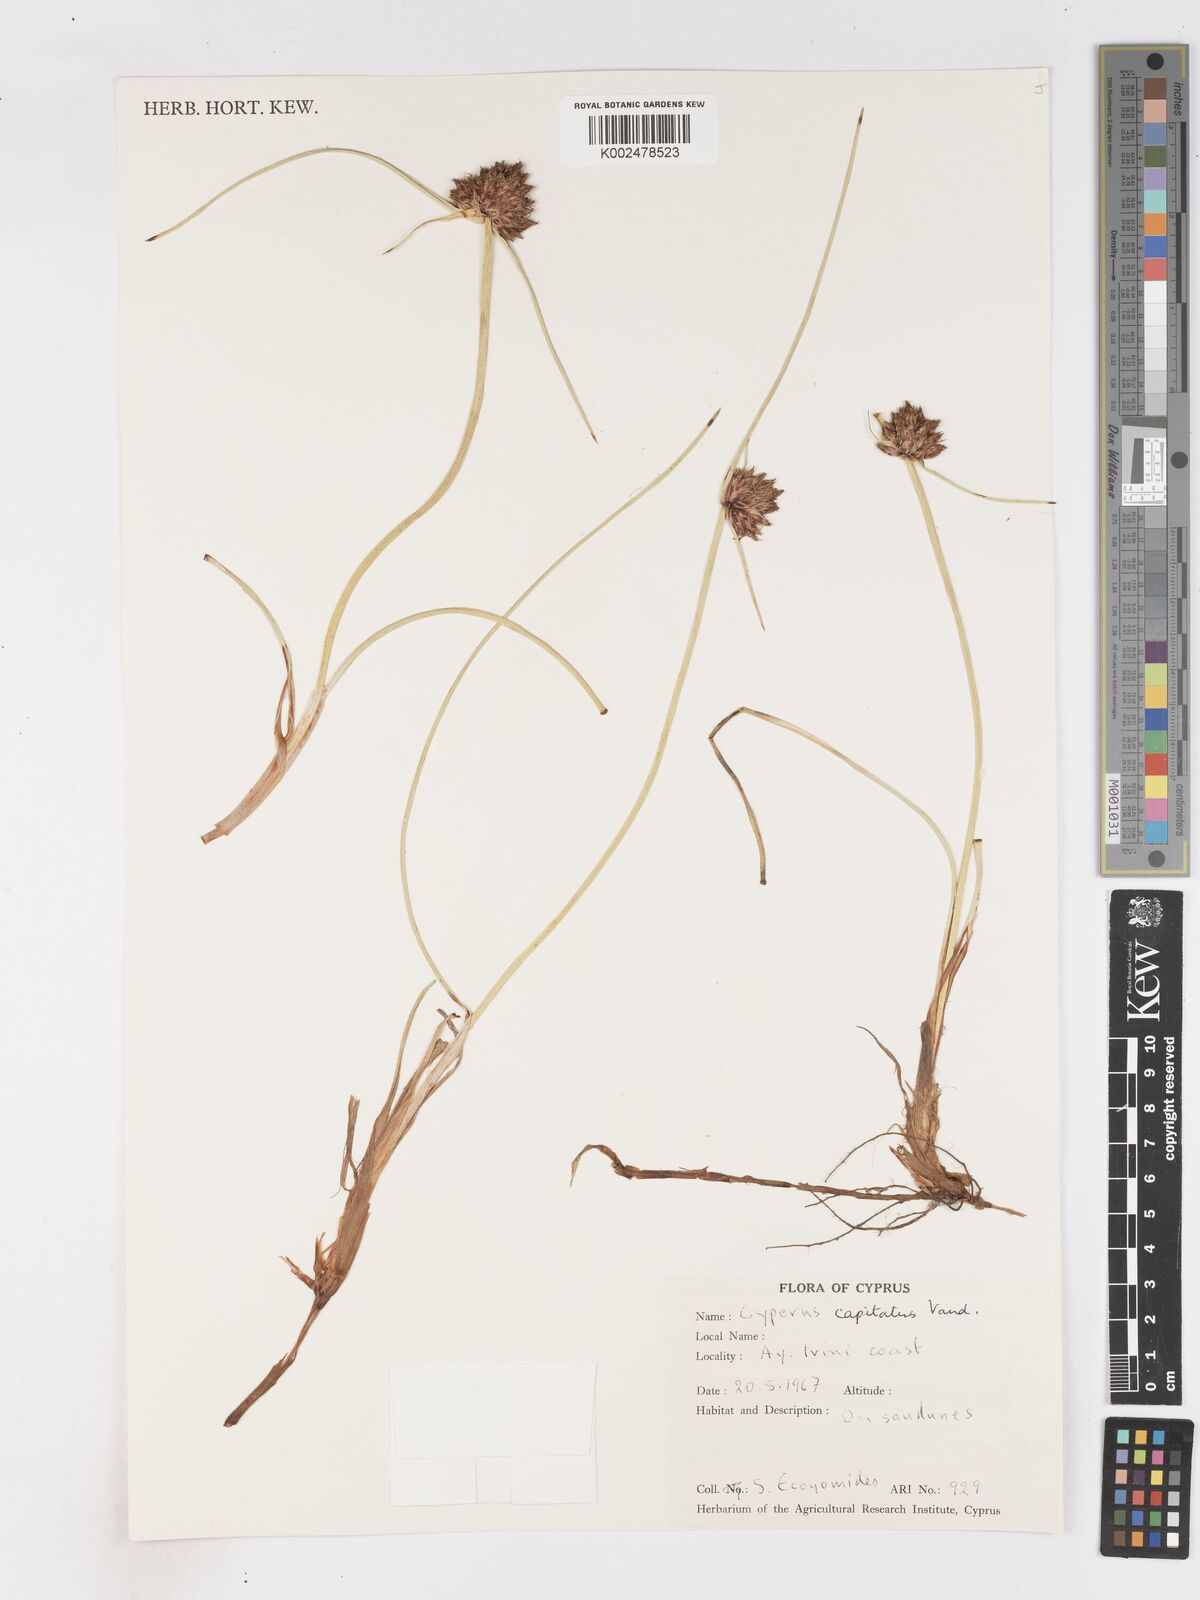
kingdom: Plantae
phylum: Tracheophyta
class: Liliopsida
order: Poales
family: Cyperaceae
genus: Cyperus
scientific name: Cyperus capitatus
